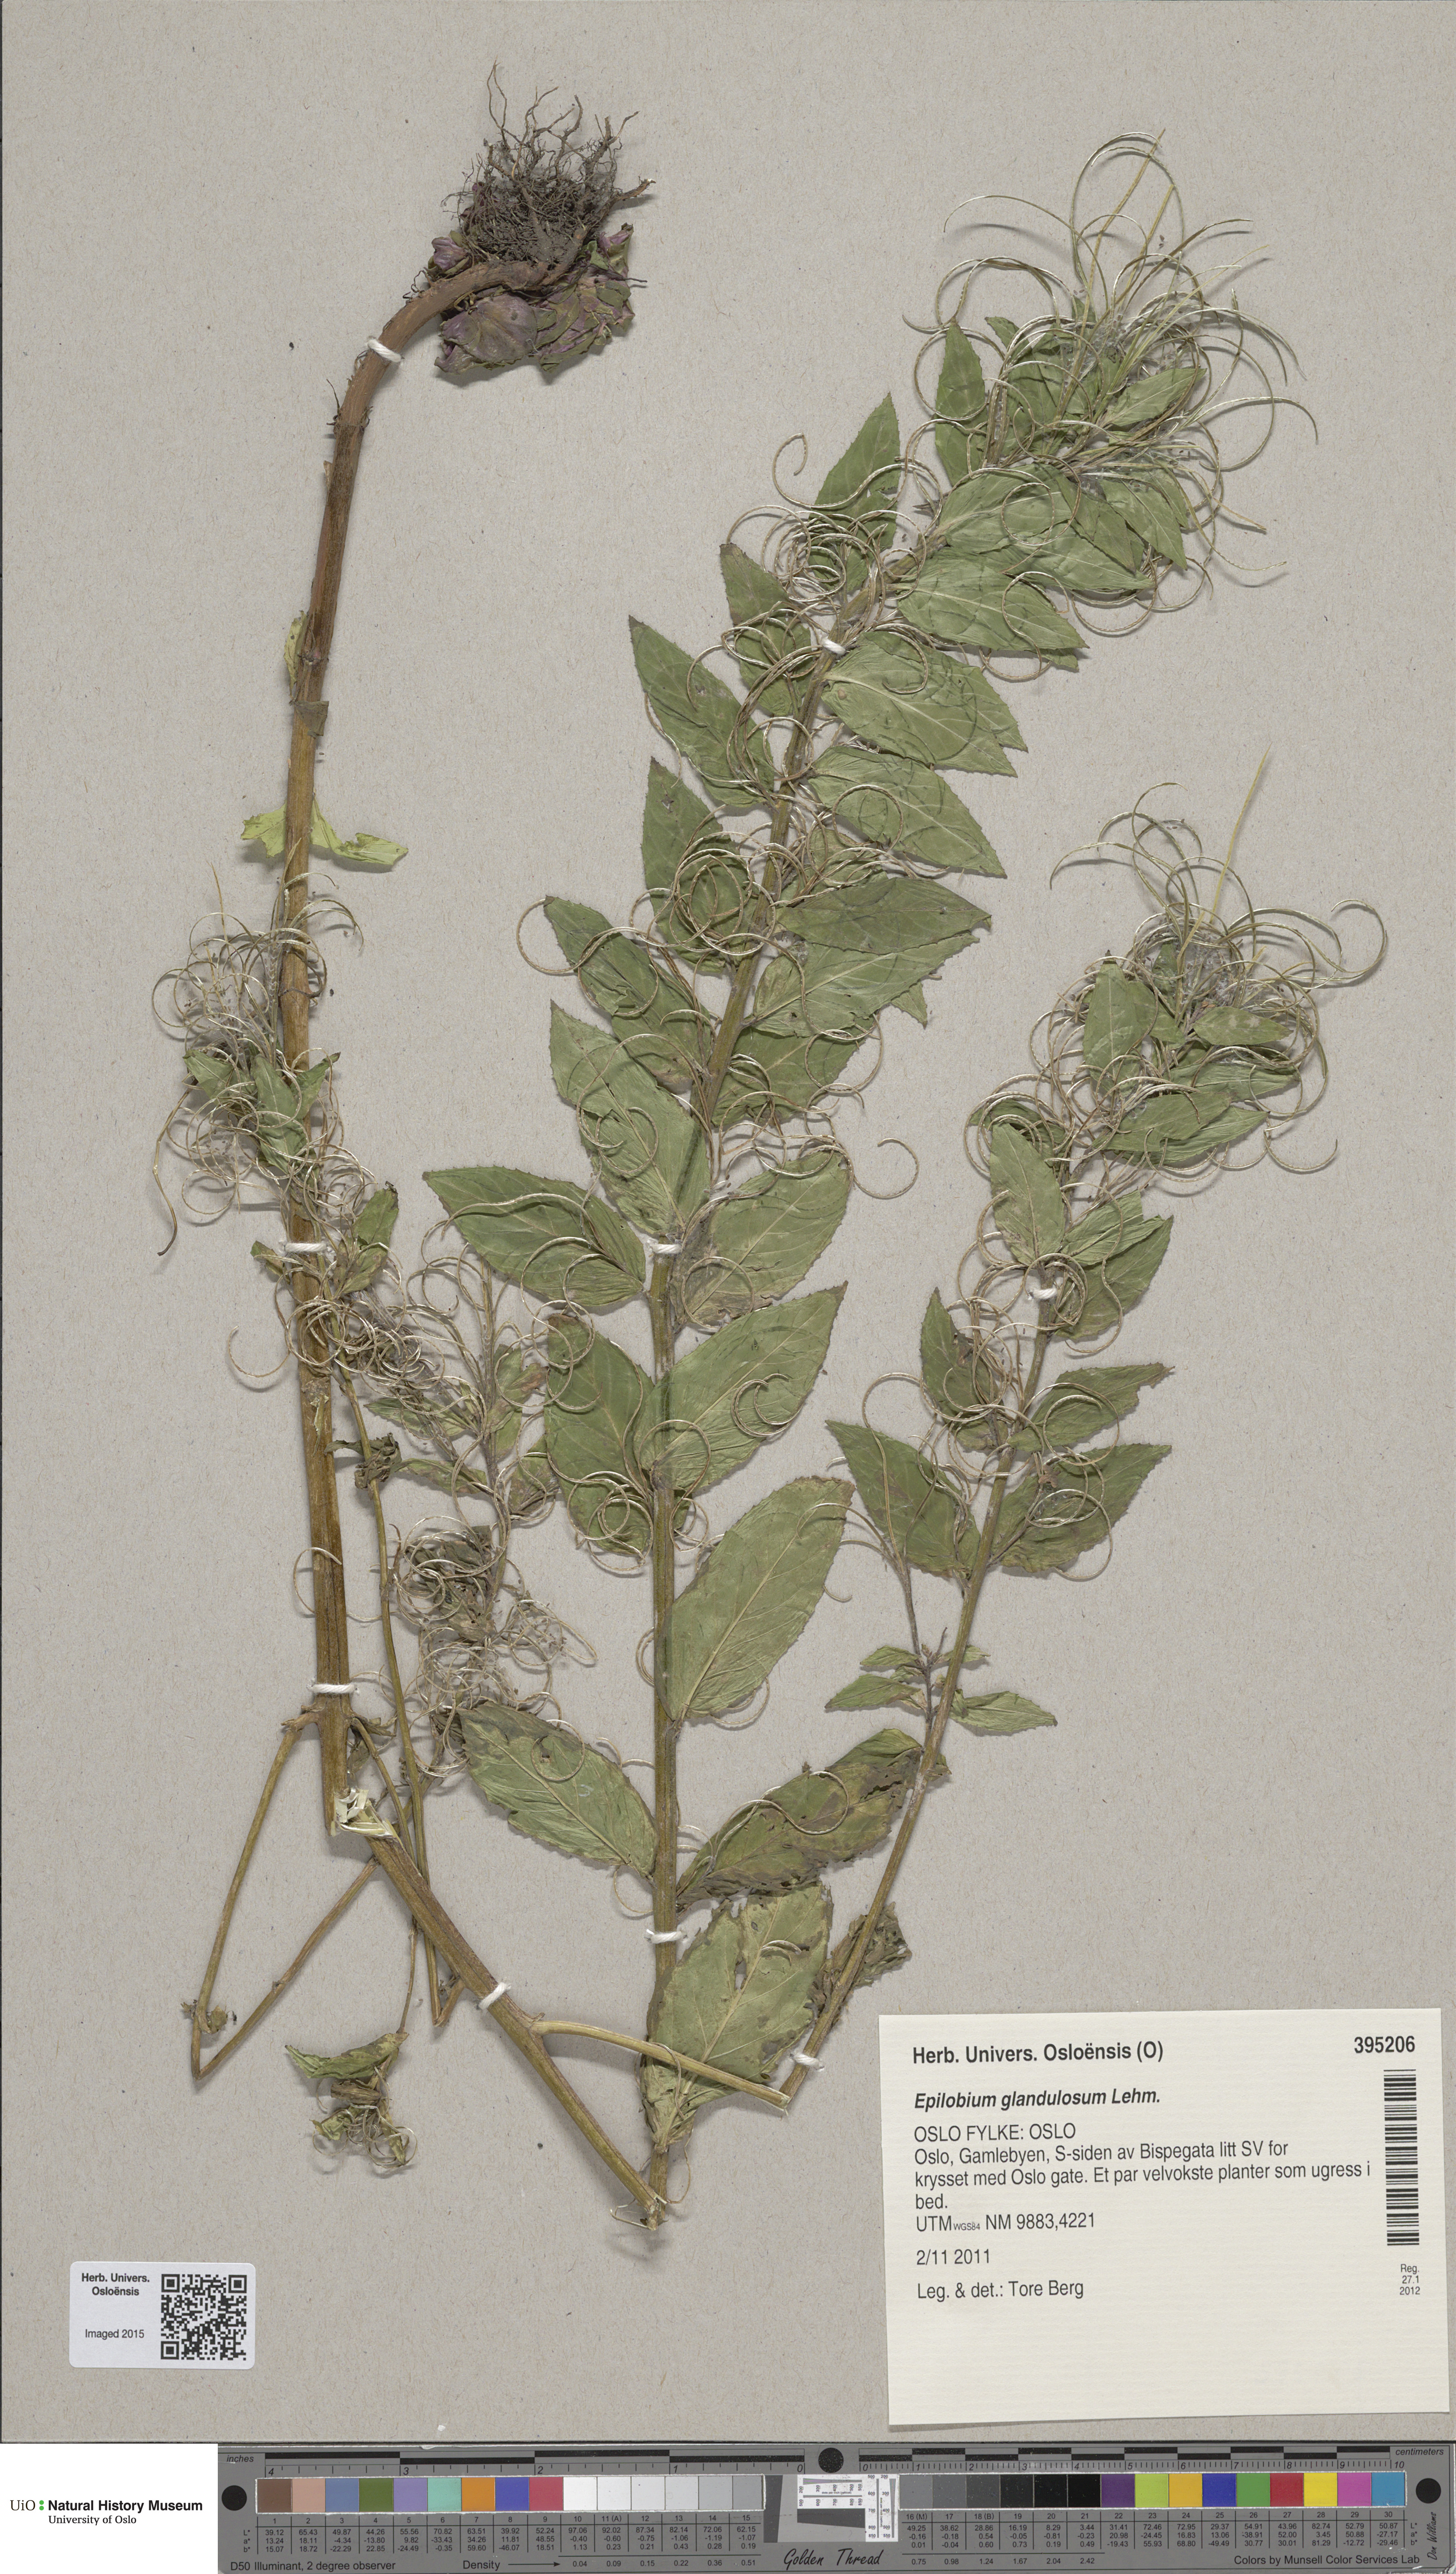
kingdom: Plantae
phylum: Tracheophyta
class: Magnoliopsida
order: Myrtales
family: Onagraceae
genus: Epilobium
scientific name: Epilobium ciliatum
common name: American willowherb
